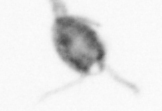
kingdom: Animalia
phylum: Arthropoda
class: Copepoda
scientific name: Copepoda
